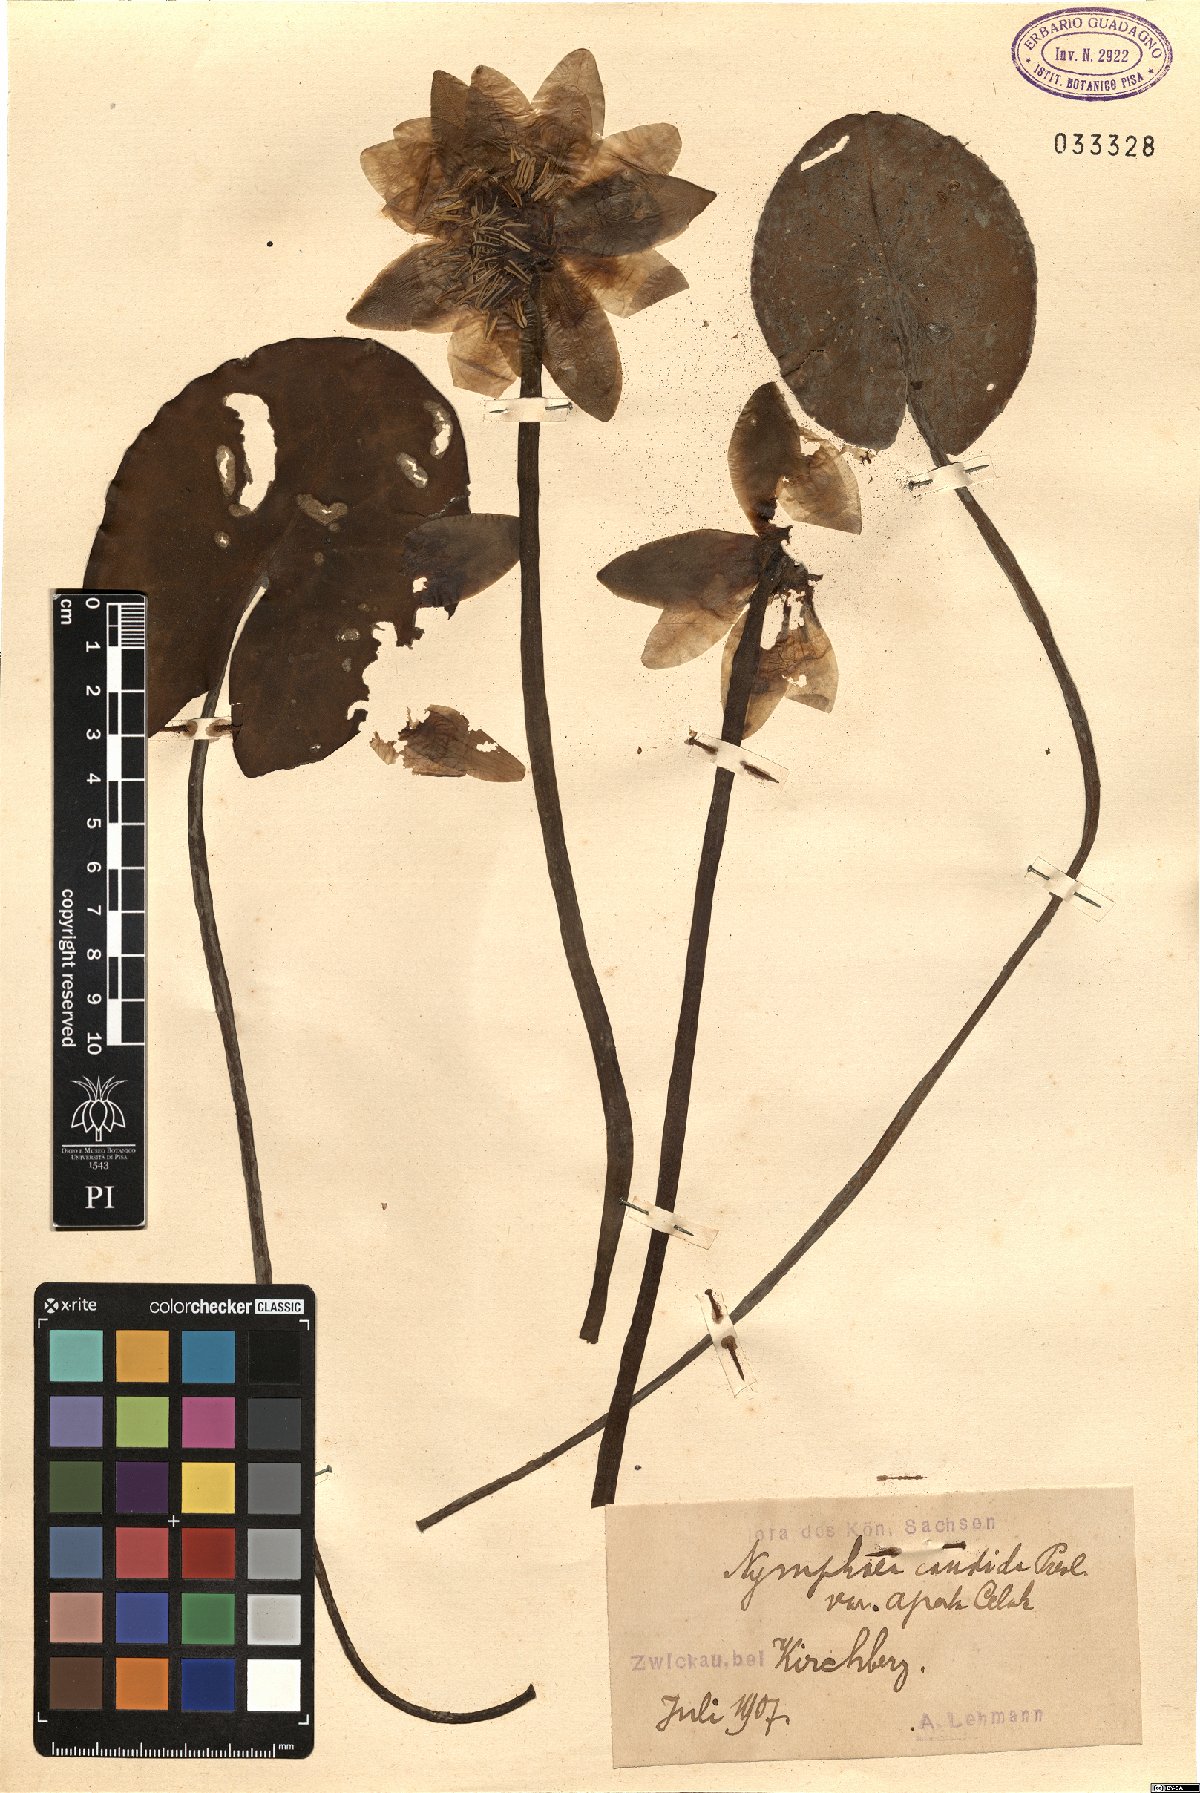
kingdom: Plantae
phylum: Tracheophyta
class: Magnoliopsida
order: Nymphaeales
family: Nymphaeaceae
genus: Nymphaea
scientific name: Nymphaea candida
